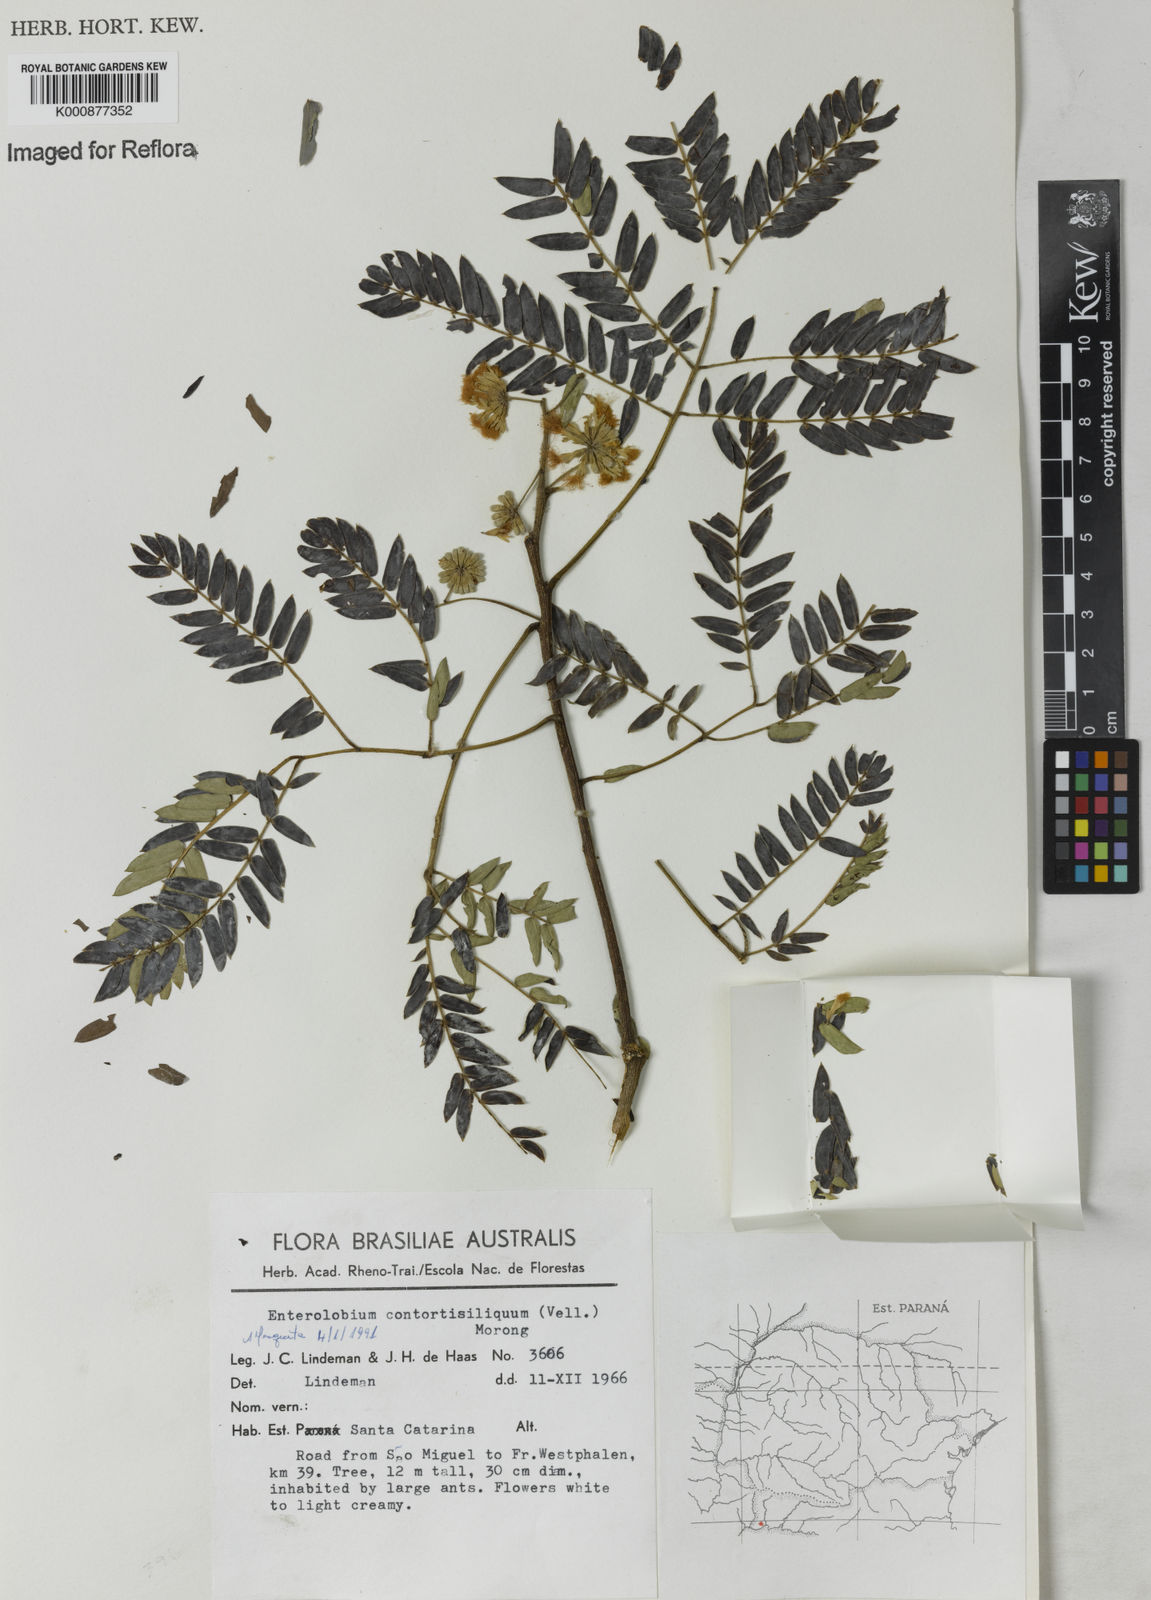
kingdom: Plantae
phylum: Tracheophyta
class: Magnoliopsida
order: Fabales
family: Fabaceae
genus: Enterolobium
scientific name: Enterolobium timbouva
